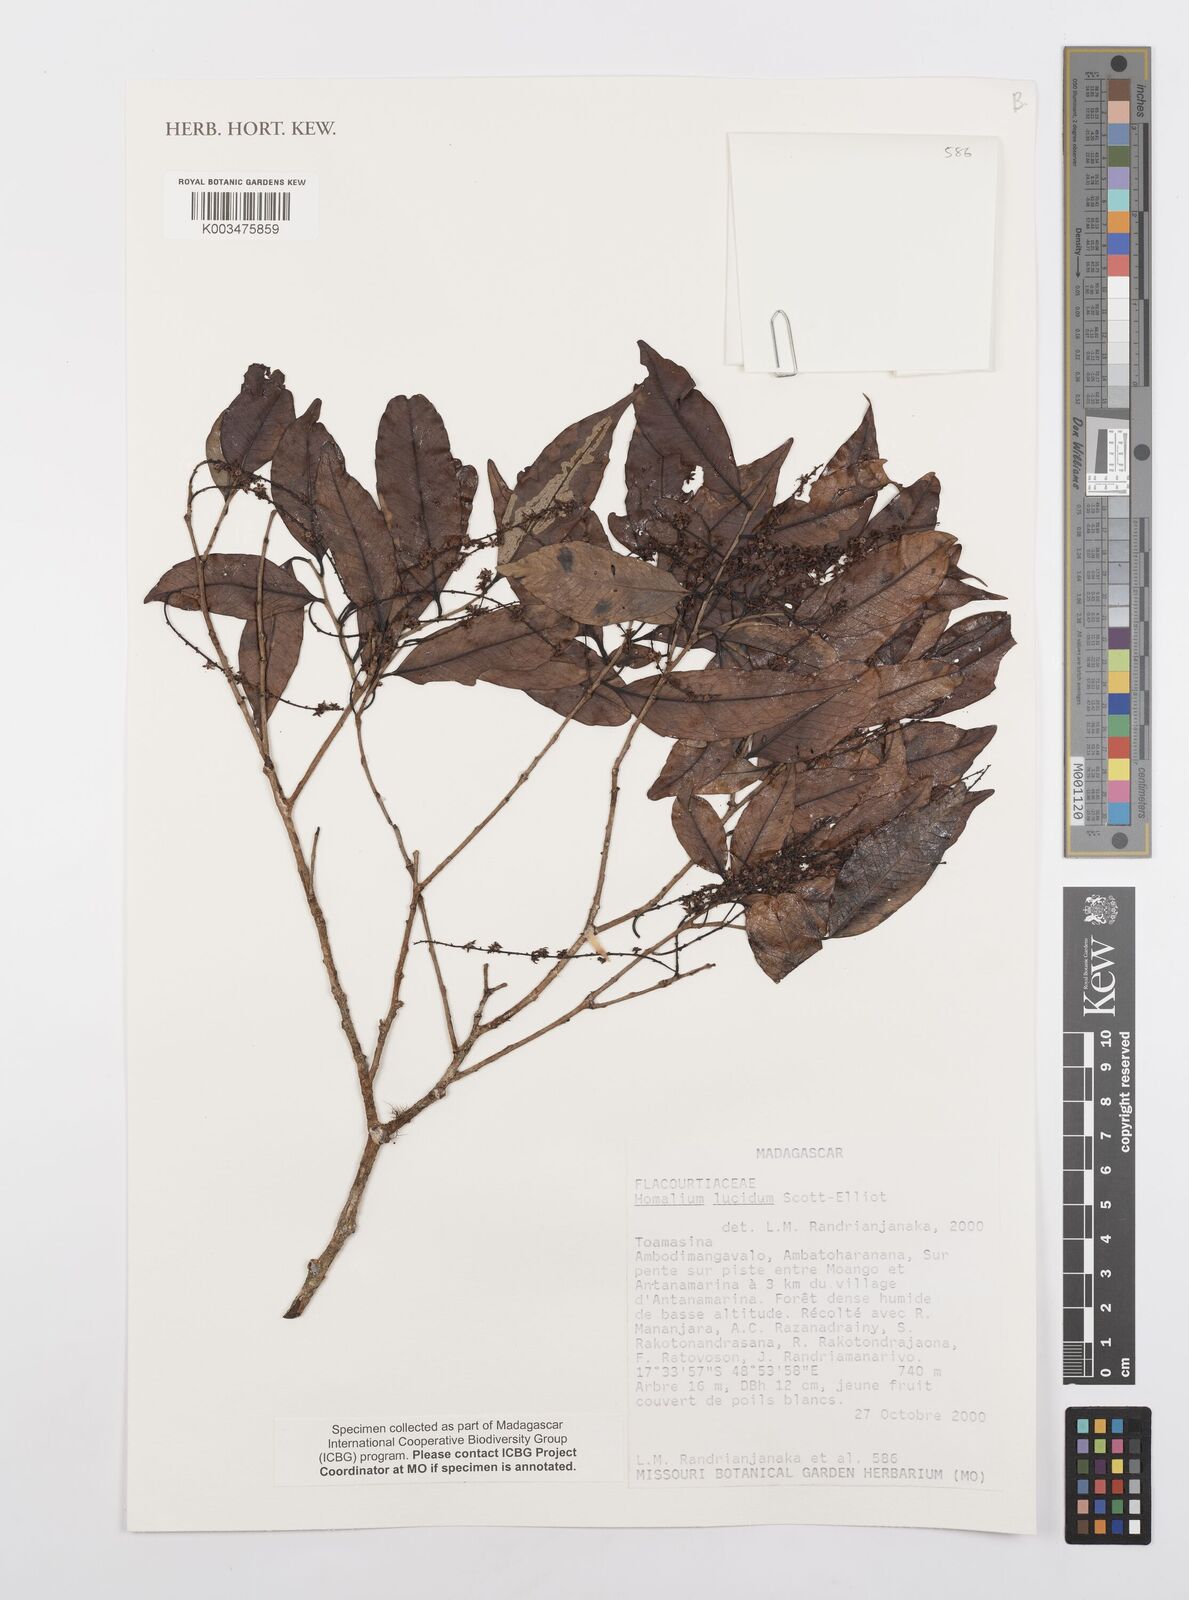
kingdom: Plantae
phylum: Tracheophyta
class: Magnoliopsida
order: Malpighiales
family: Salicaceae
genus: Homalium
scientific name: Homalium lucidum
